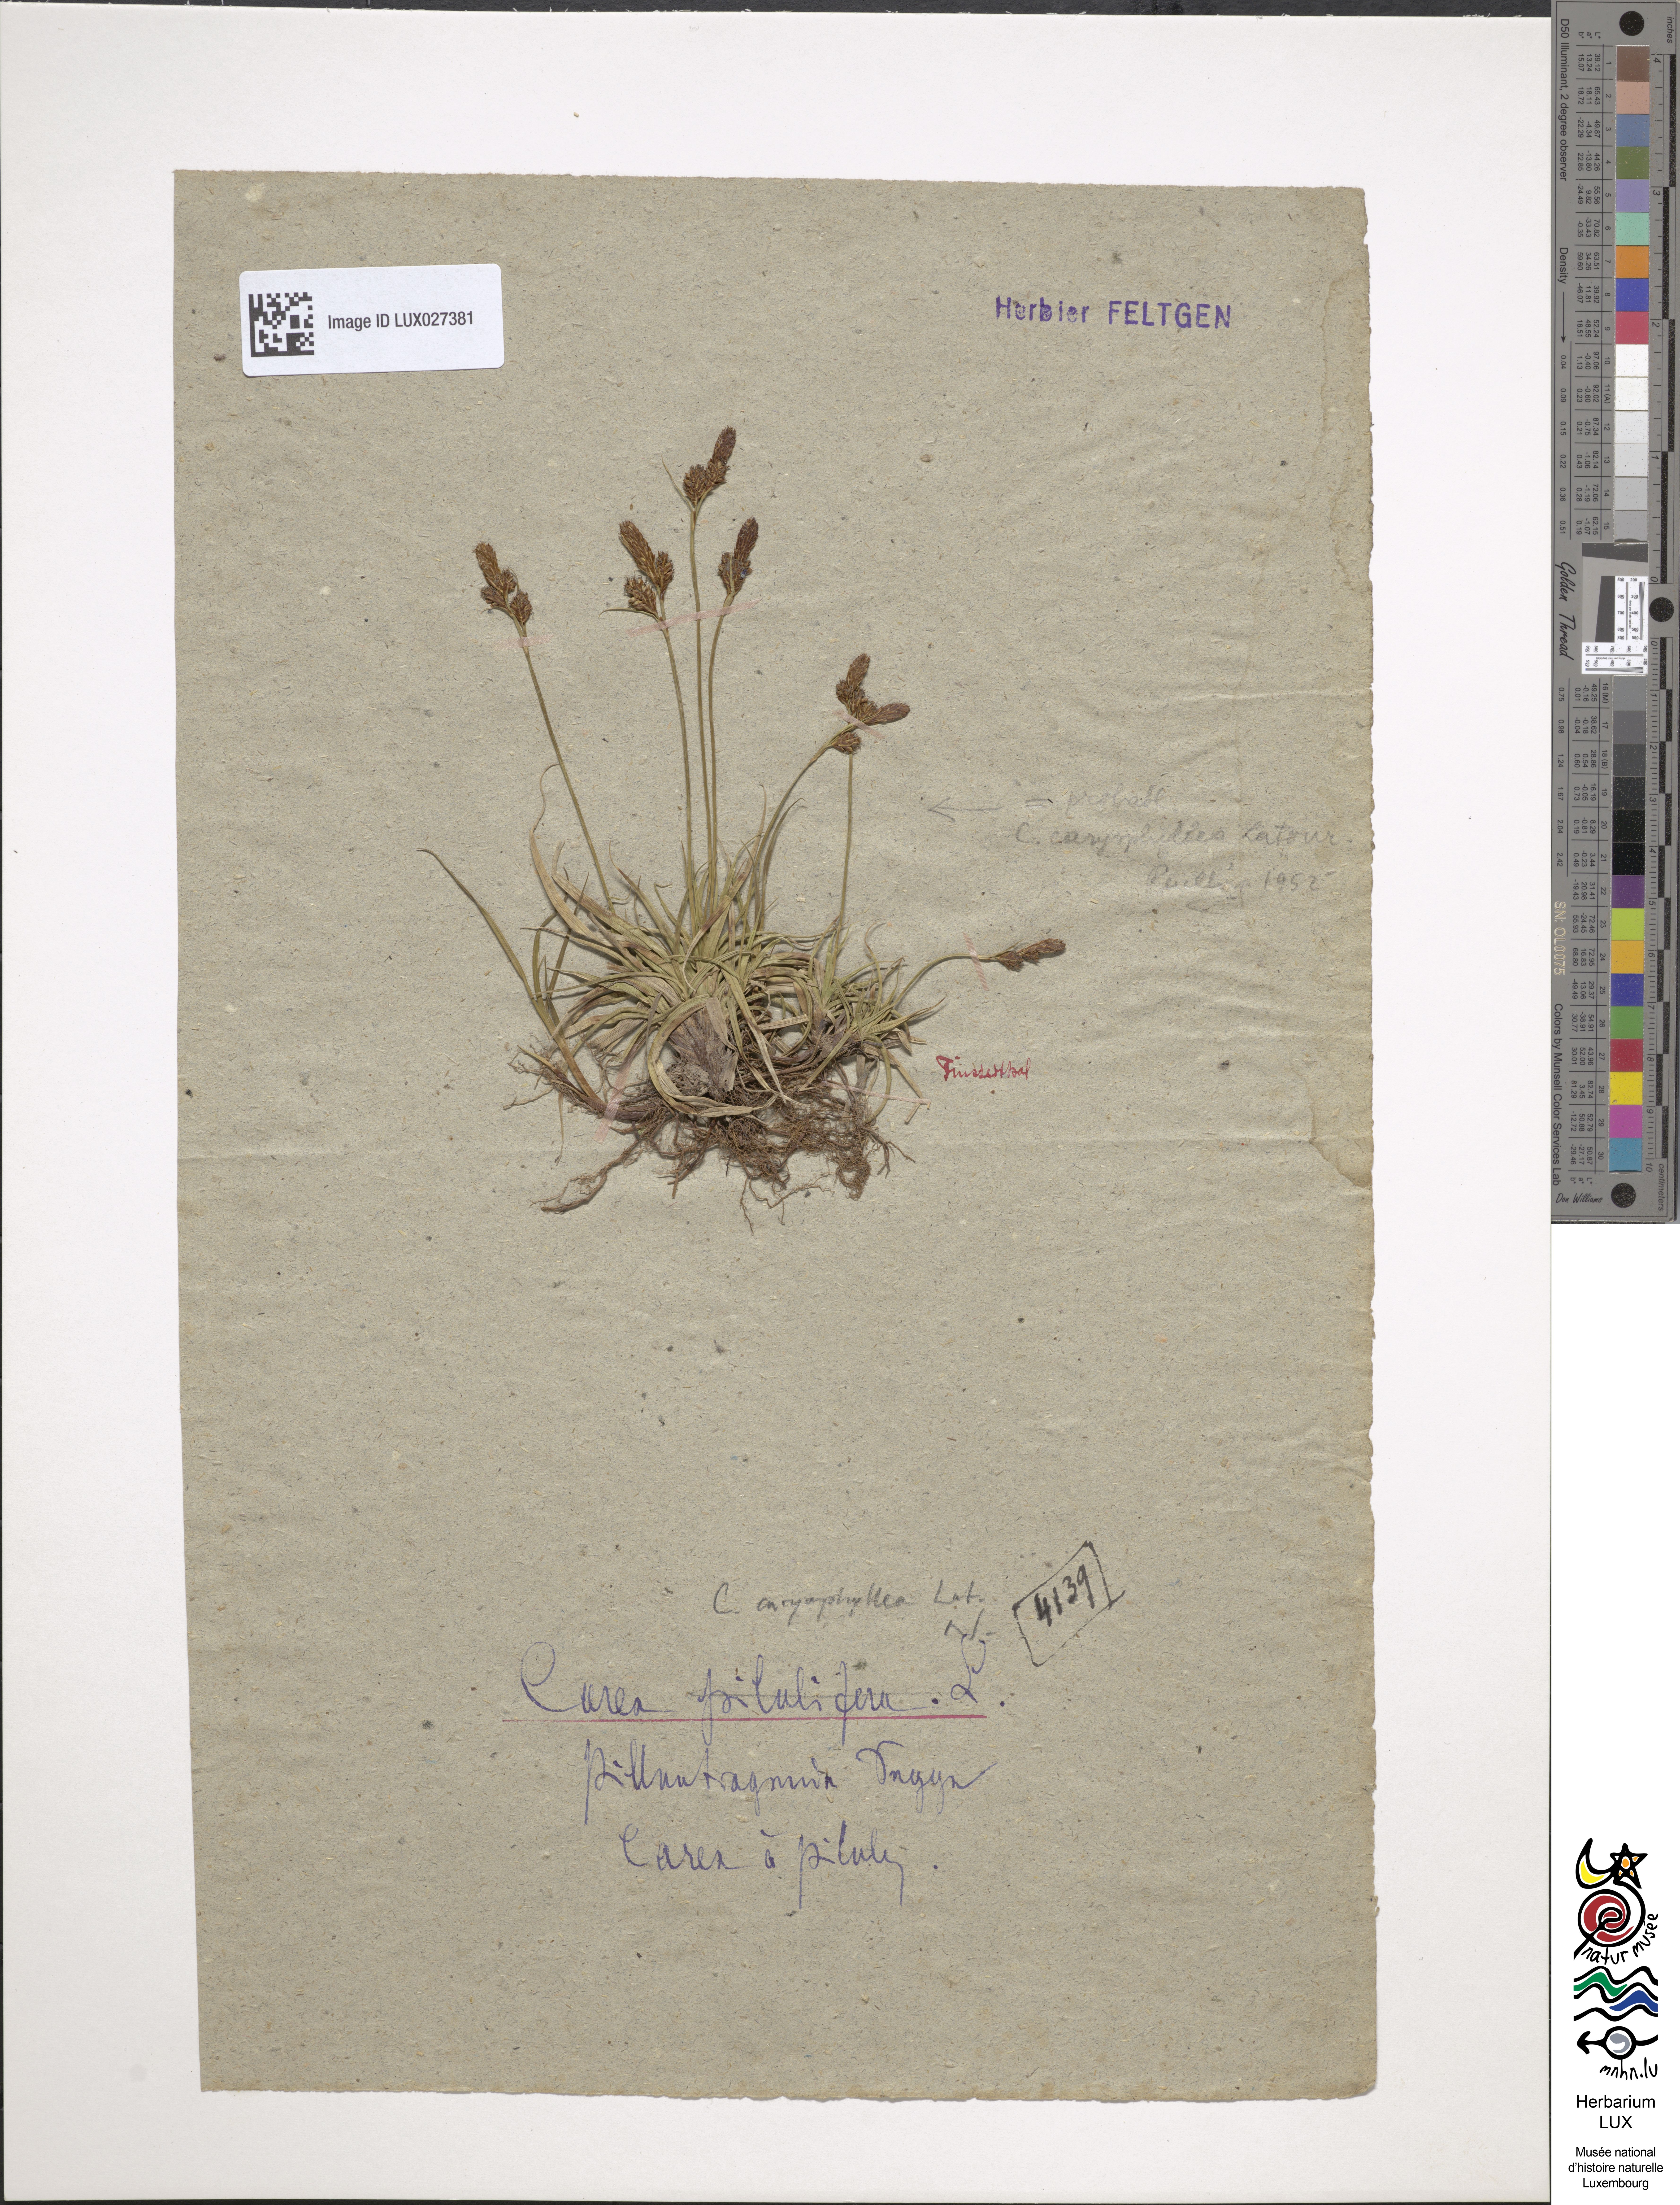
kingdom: Plantae
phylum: Tracheophyta
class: Liliopsida
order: Poales
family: Cyperaceae
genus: Carex
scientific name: Carex pilulifera
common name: Pill sedge
